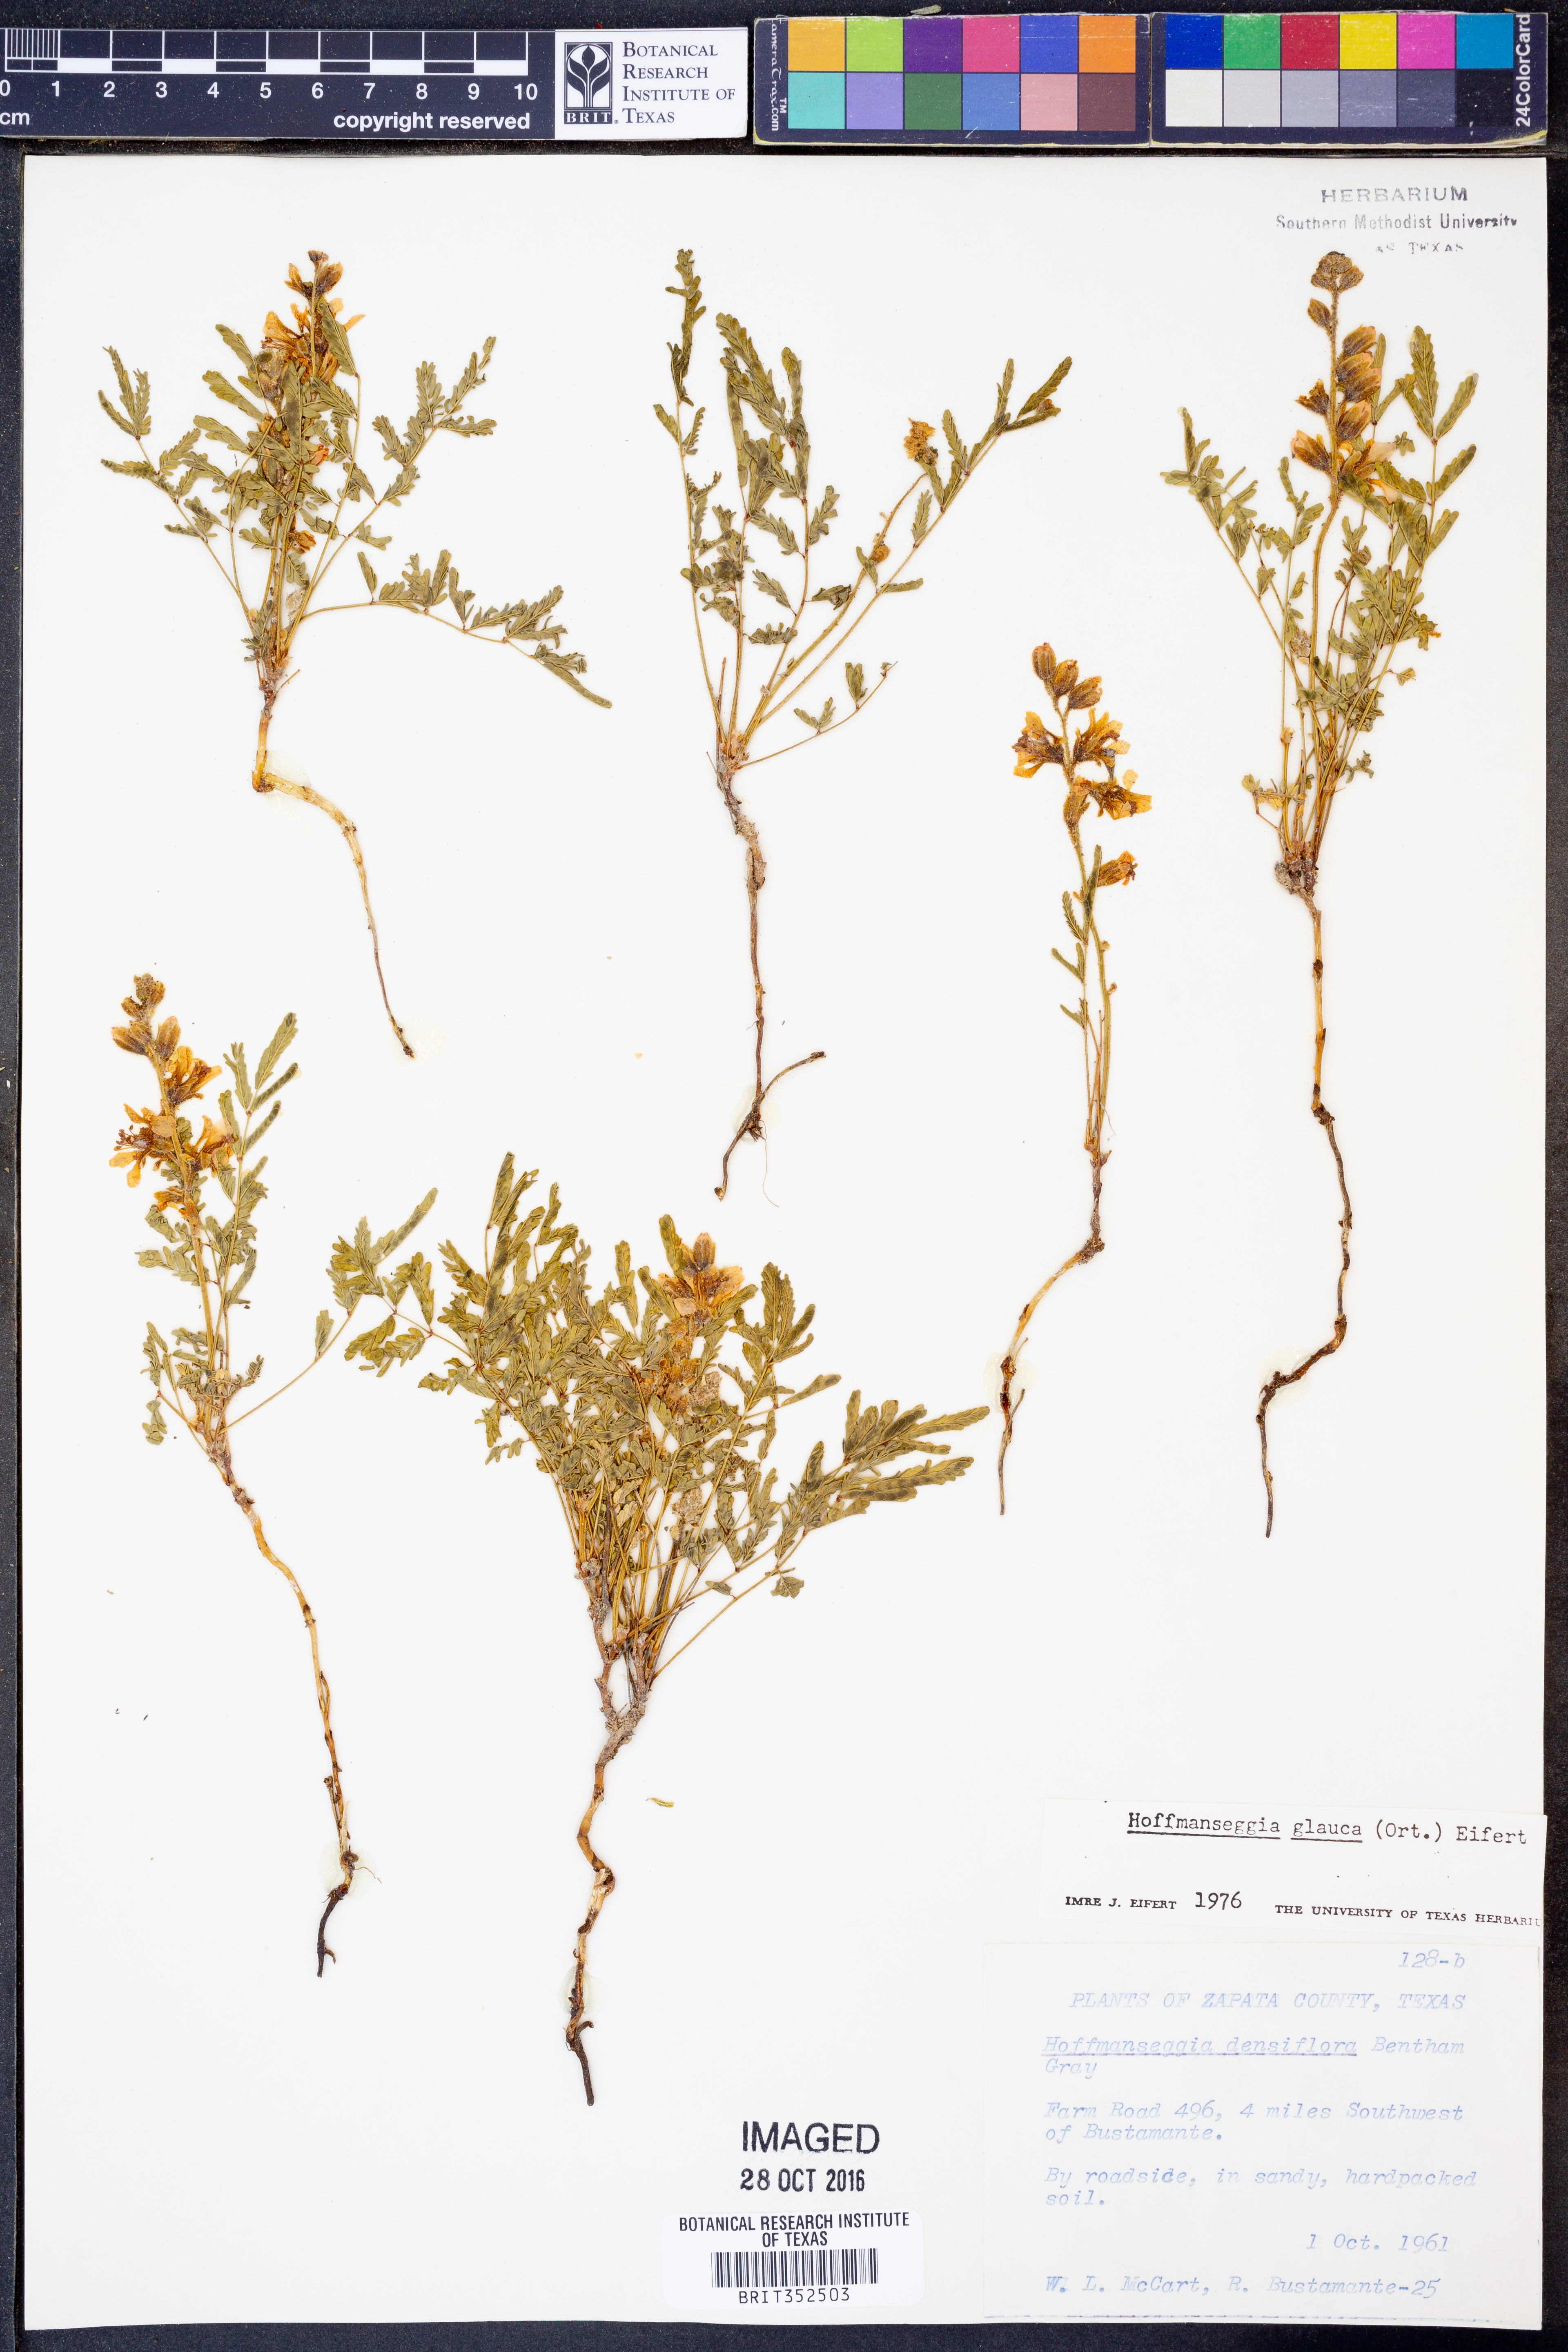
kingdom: Plantae
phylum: Tracheophyta
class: Magnoliopsida
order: Fabales
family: Fabaceae
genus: Hoffmannseggia
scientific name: Hoffmannseggia glauca
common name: Pignut
